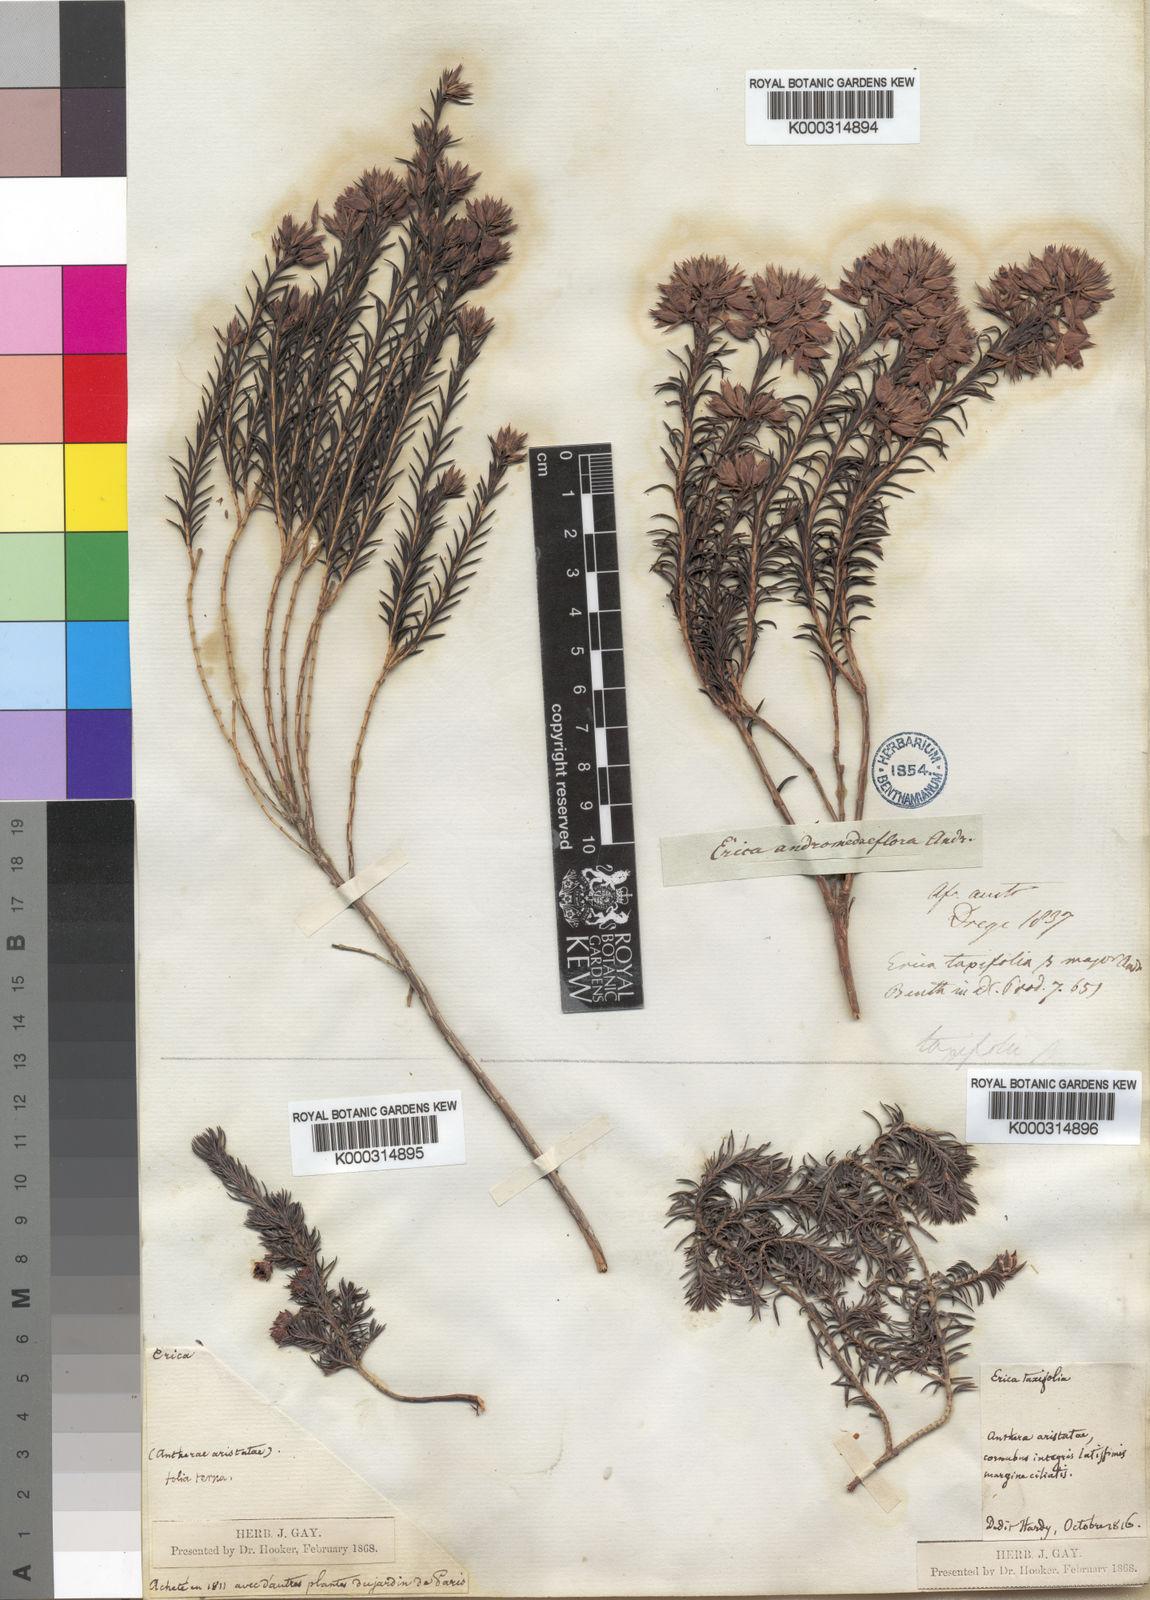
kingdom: Plantae
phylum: Tracheophyta
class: Magnoliopsida
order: Ericales
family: Ericaceae
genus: Erica
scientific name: Erica taxifolia
